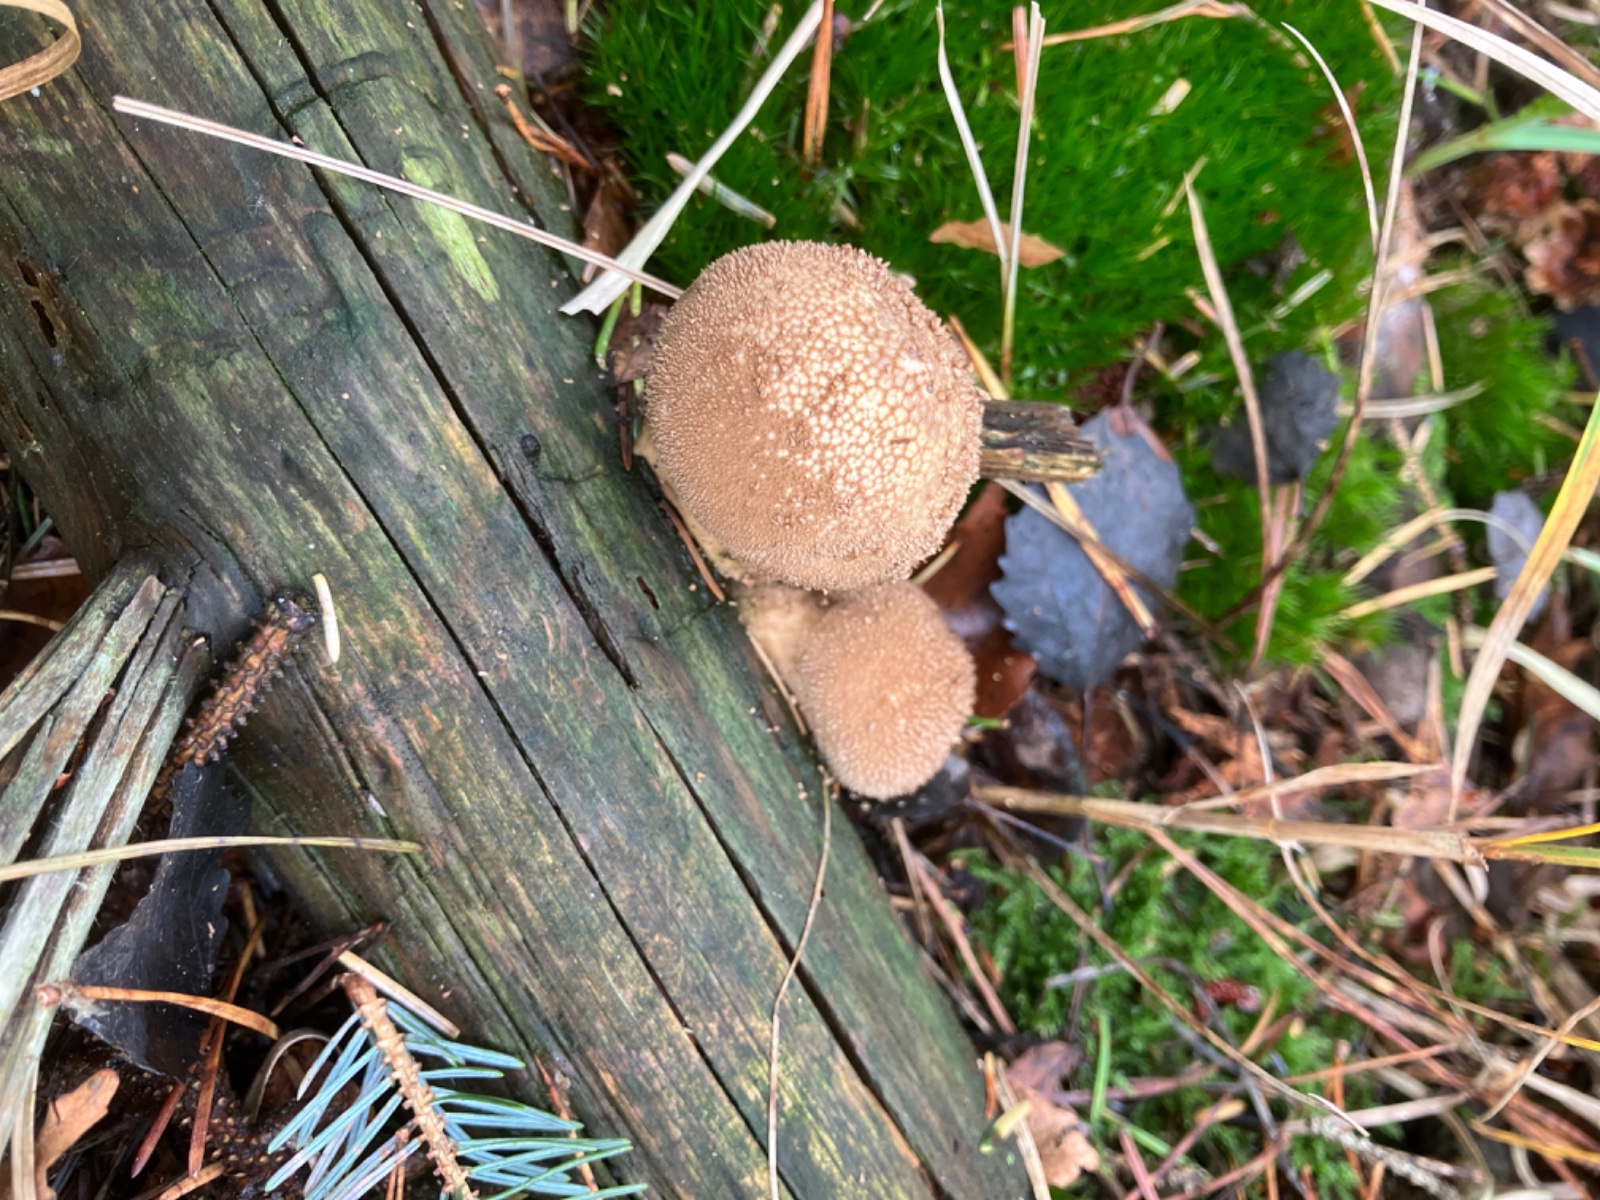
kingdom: Fungi
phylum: Basidiomycota
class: Agaricomycetes
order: Agaricales
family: Lycoperdaceae
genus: Lycoperdon
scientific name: Lycoperdon nigrescens
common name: sortagtig støvbold
